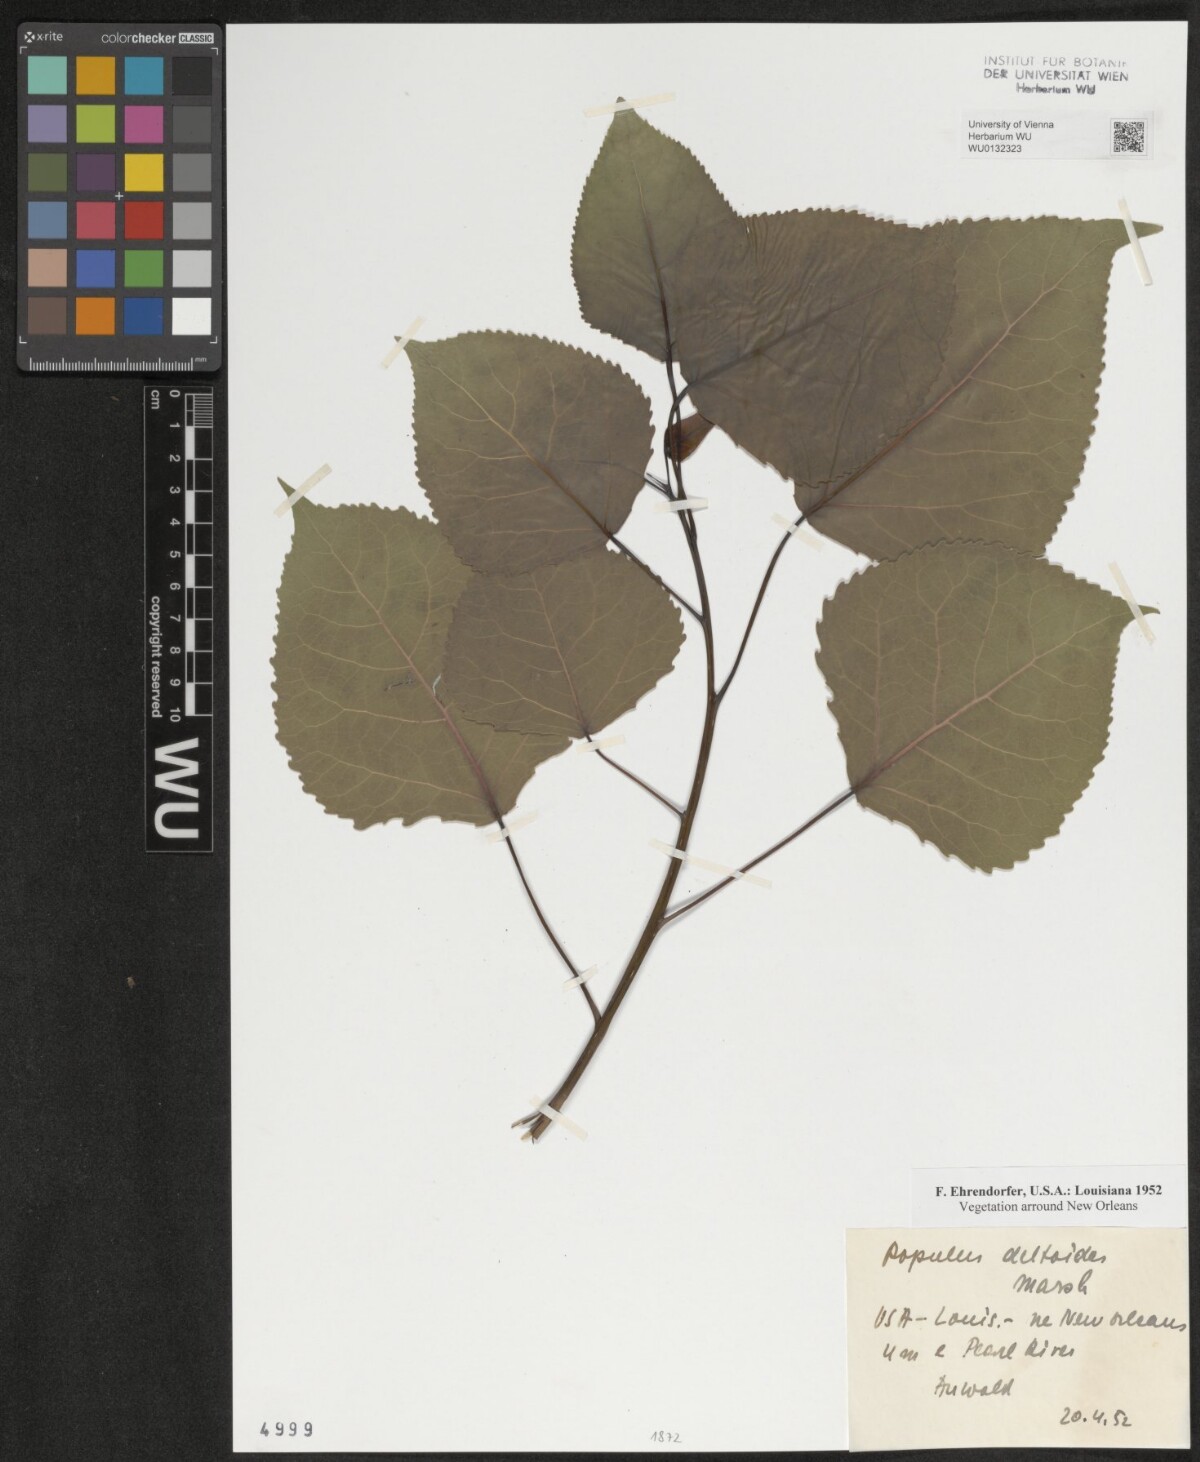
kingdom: Plantae
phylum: Tracheophyta
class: Magnoliopsida
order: Malpighiales
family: Salicaceae
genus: Populus
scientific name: Populus deltoides
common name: Eastern cottonwood
